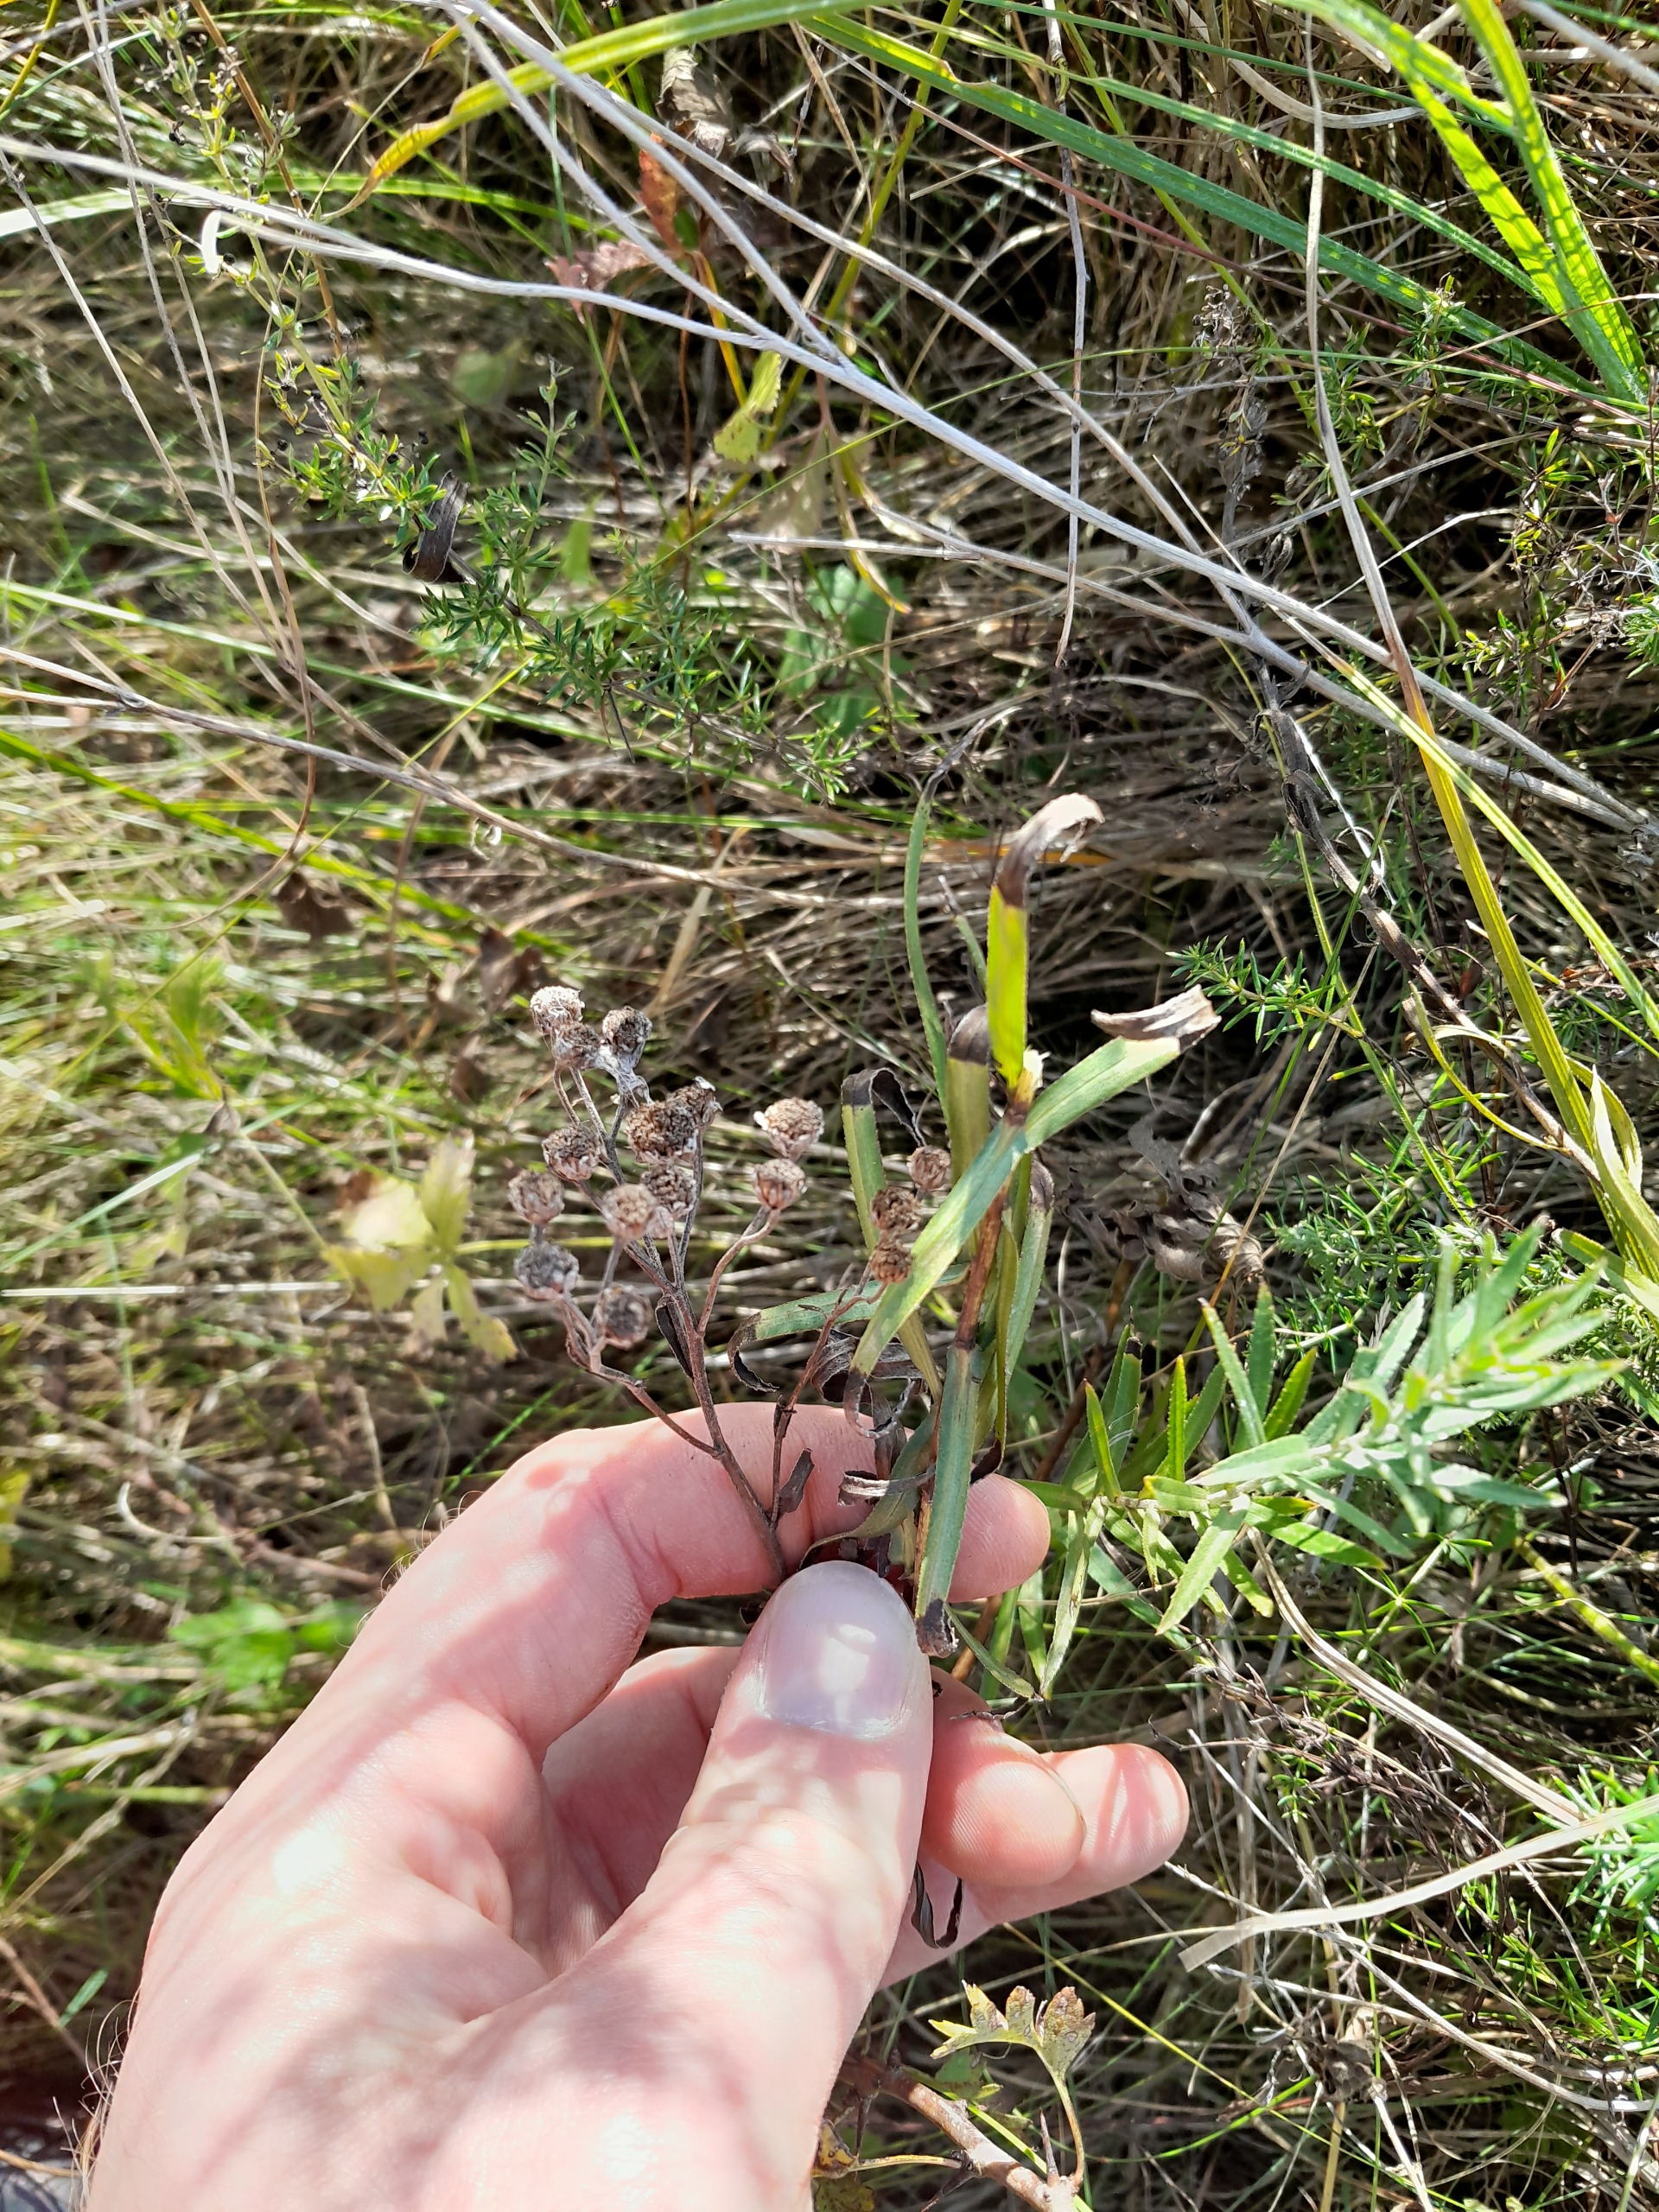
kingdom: Plantae
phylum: Tracheophyta
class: Magnoliopsida
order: Asterales
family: Asteraceae
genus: Achillea
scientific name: Achillea ptarmica
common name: Nyse-røllike
